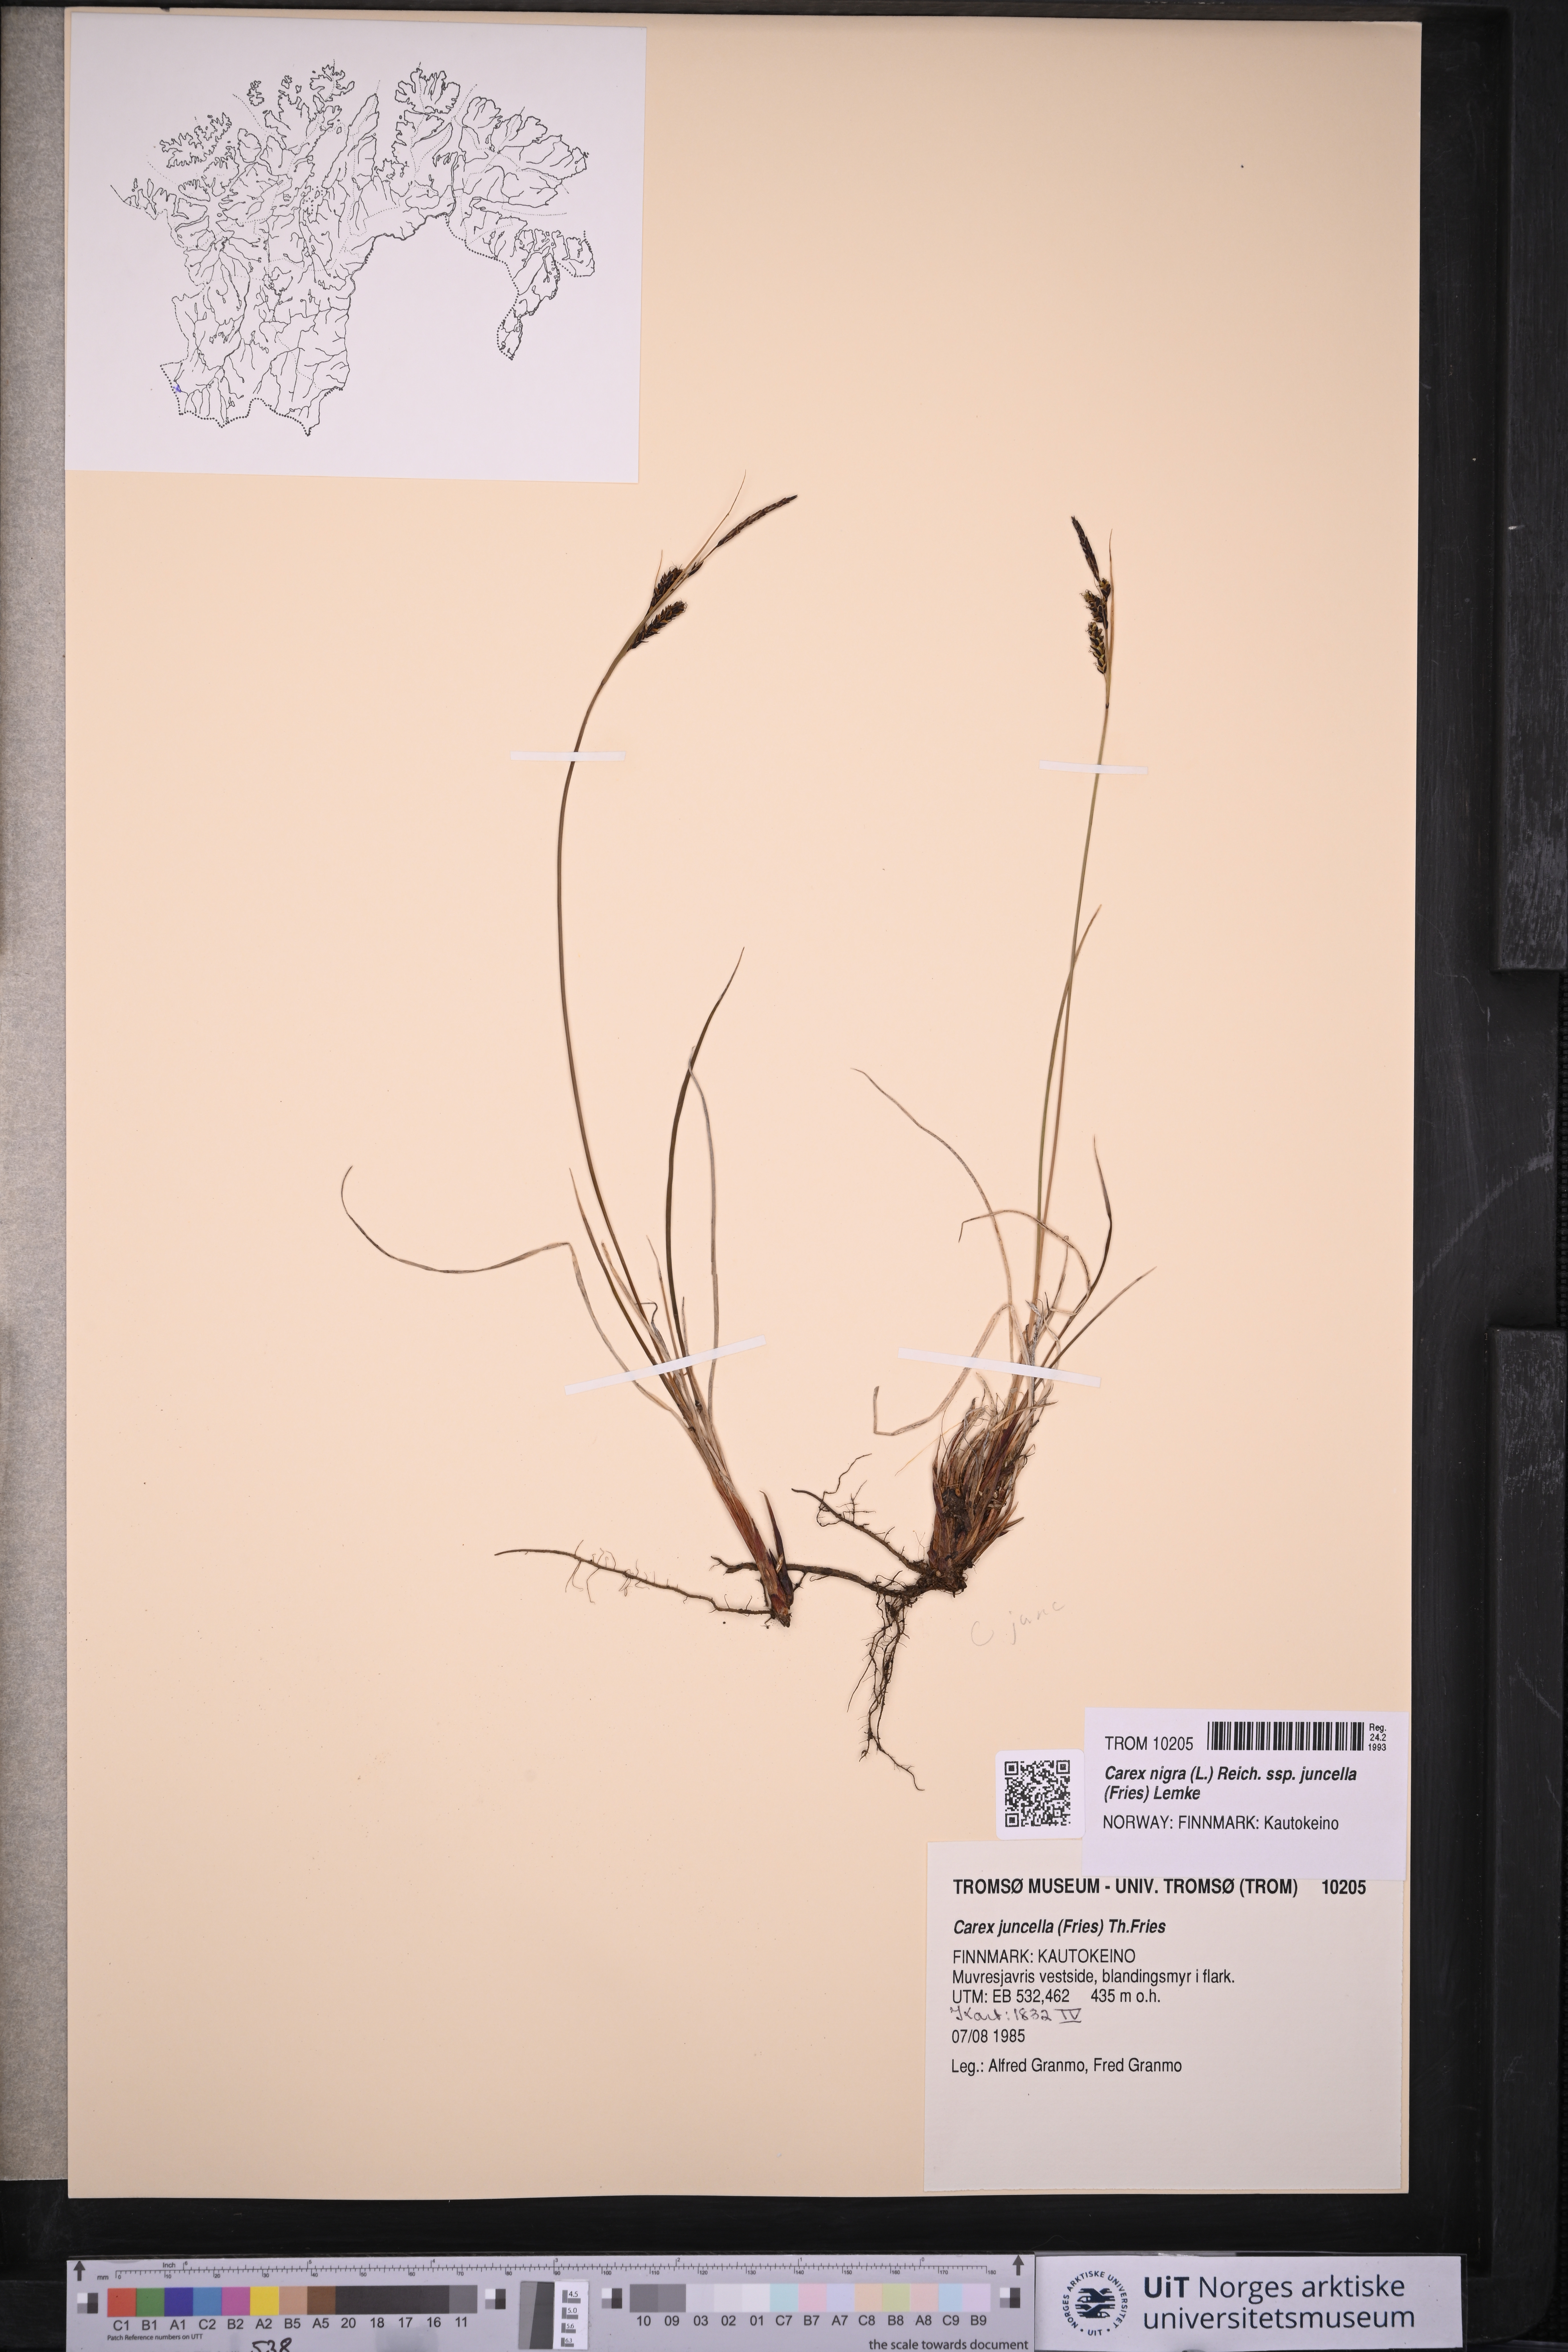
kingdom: Plantae
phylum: Tracheophyta
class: Liliopsida
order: Poales
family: Cyperaceae
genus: Carex
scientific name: Carex nigra
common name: Common sedge
